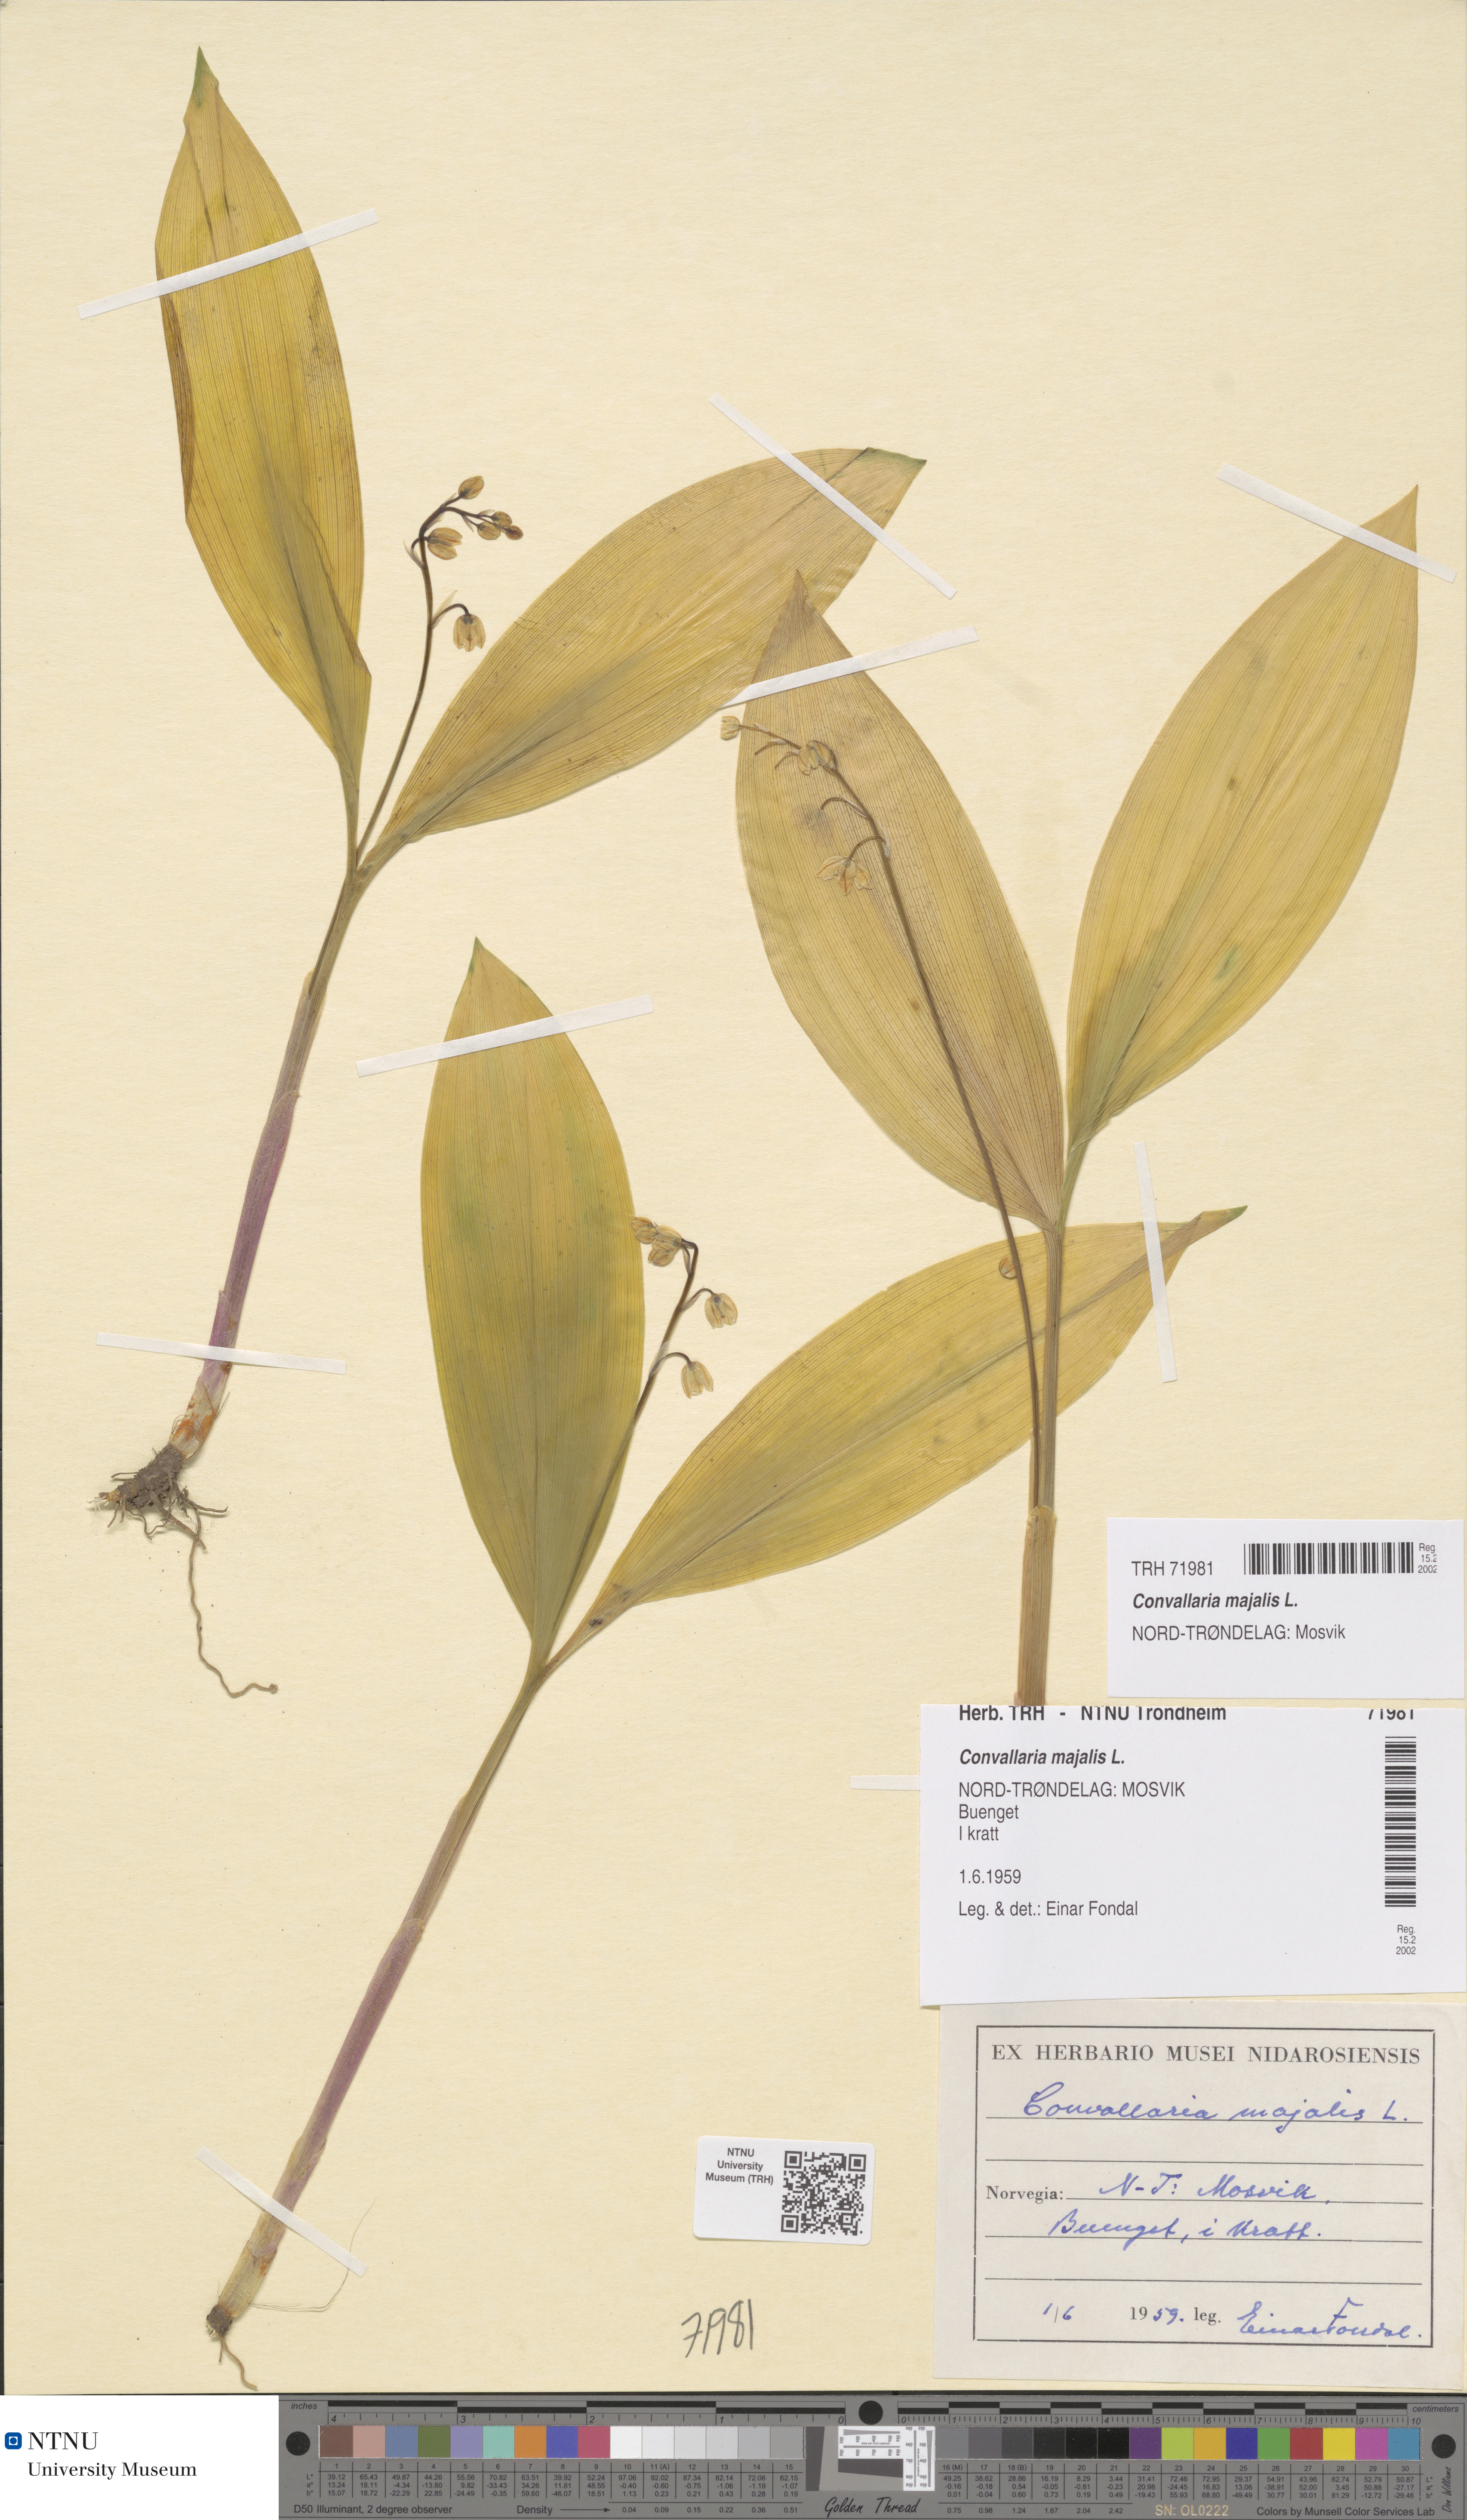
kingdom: Plantae
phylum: Tracheophyta
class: Liliopsida
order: Asparagales
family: Asparagaceae
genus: Convallaria
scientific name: Convallaria majalis
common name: Lily-of-the-valley
